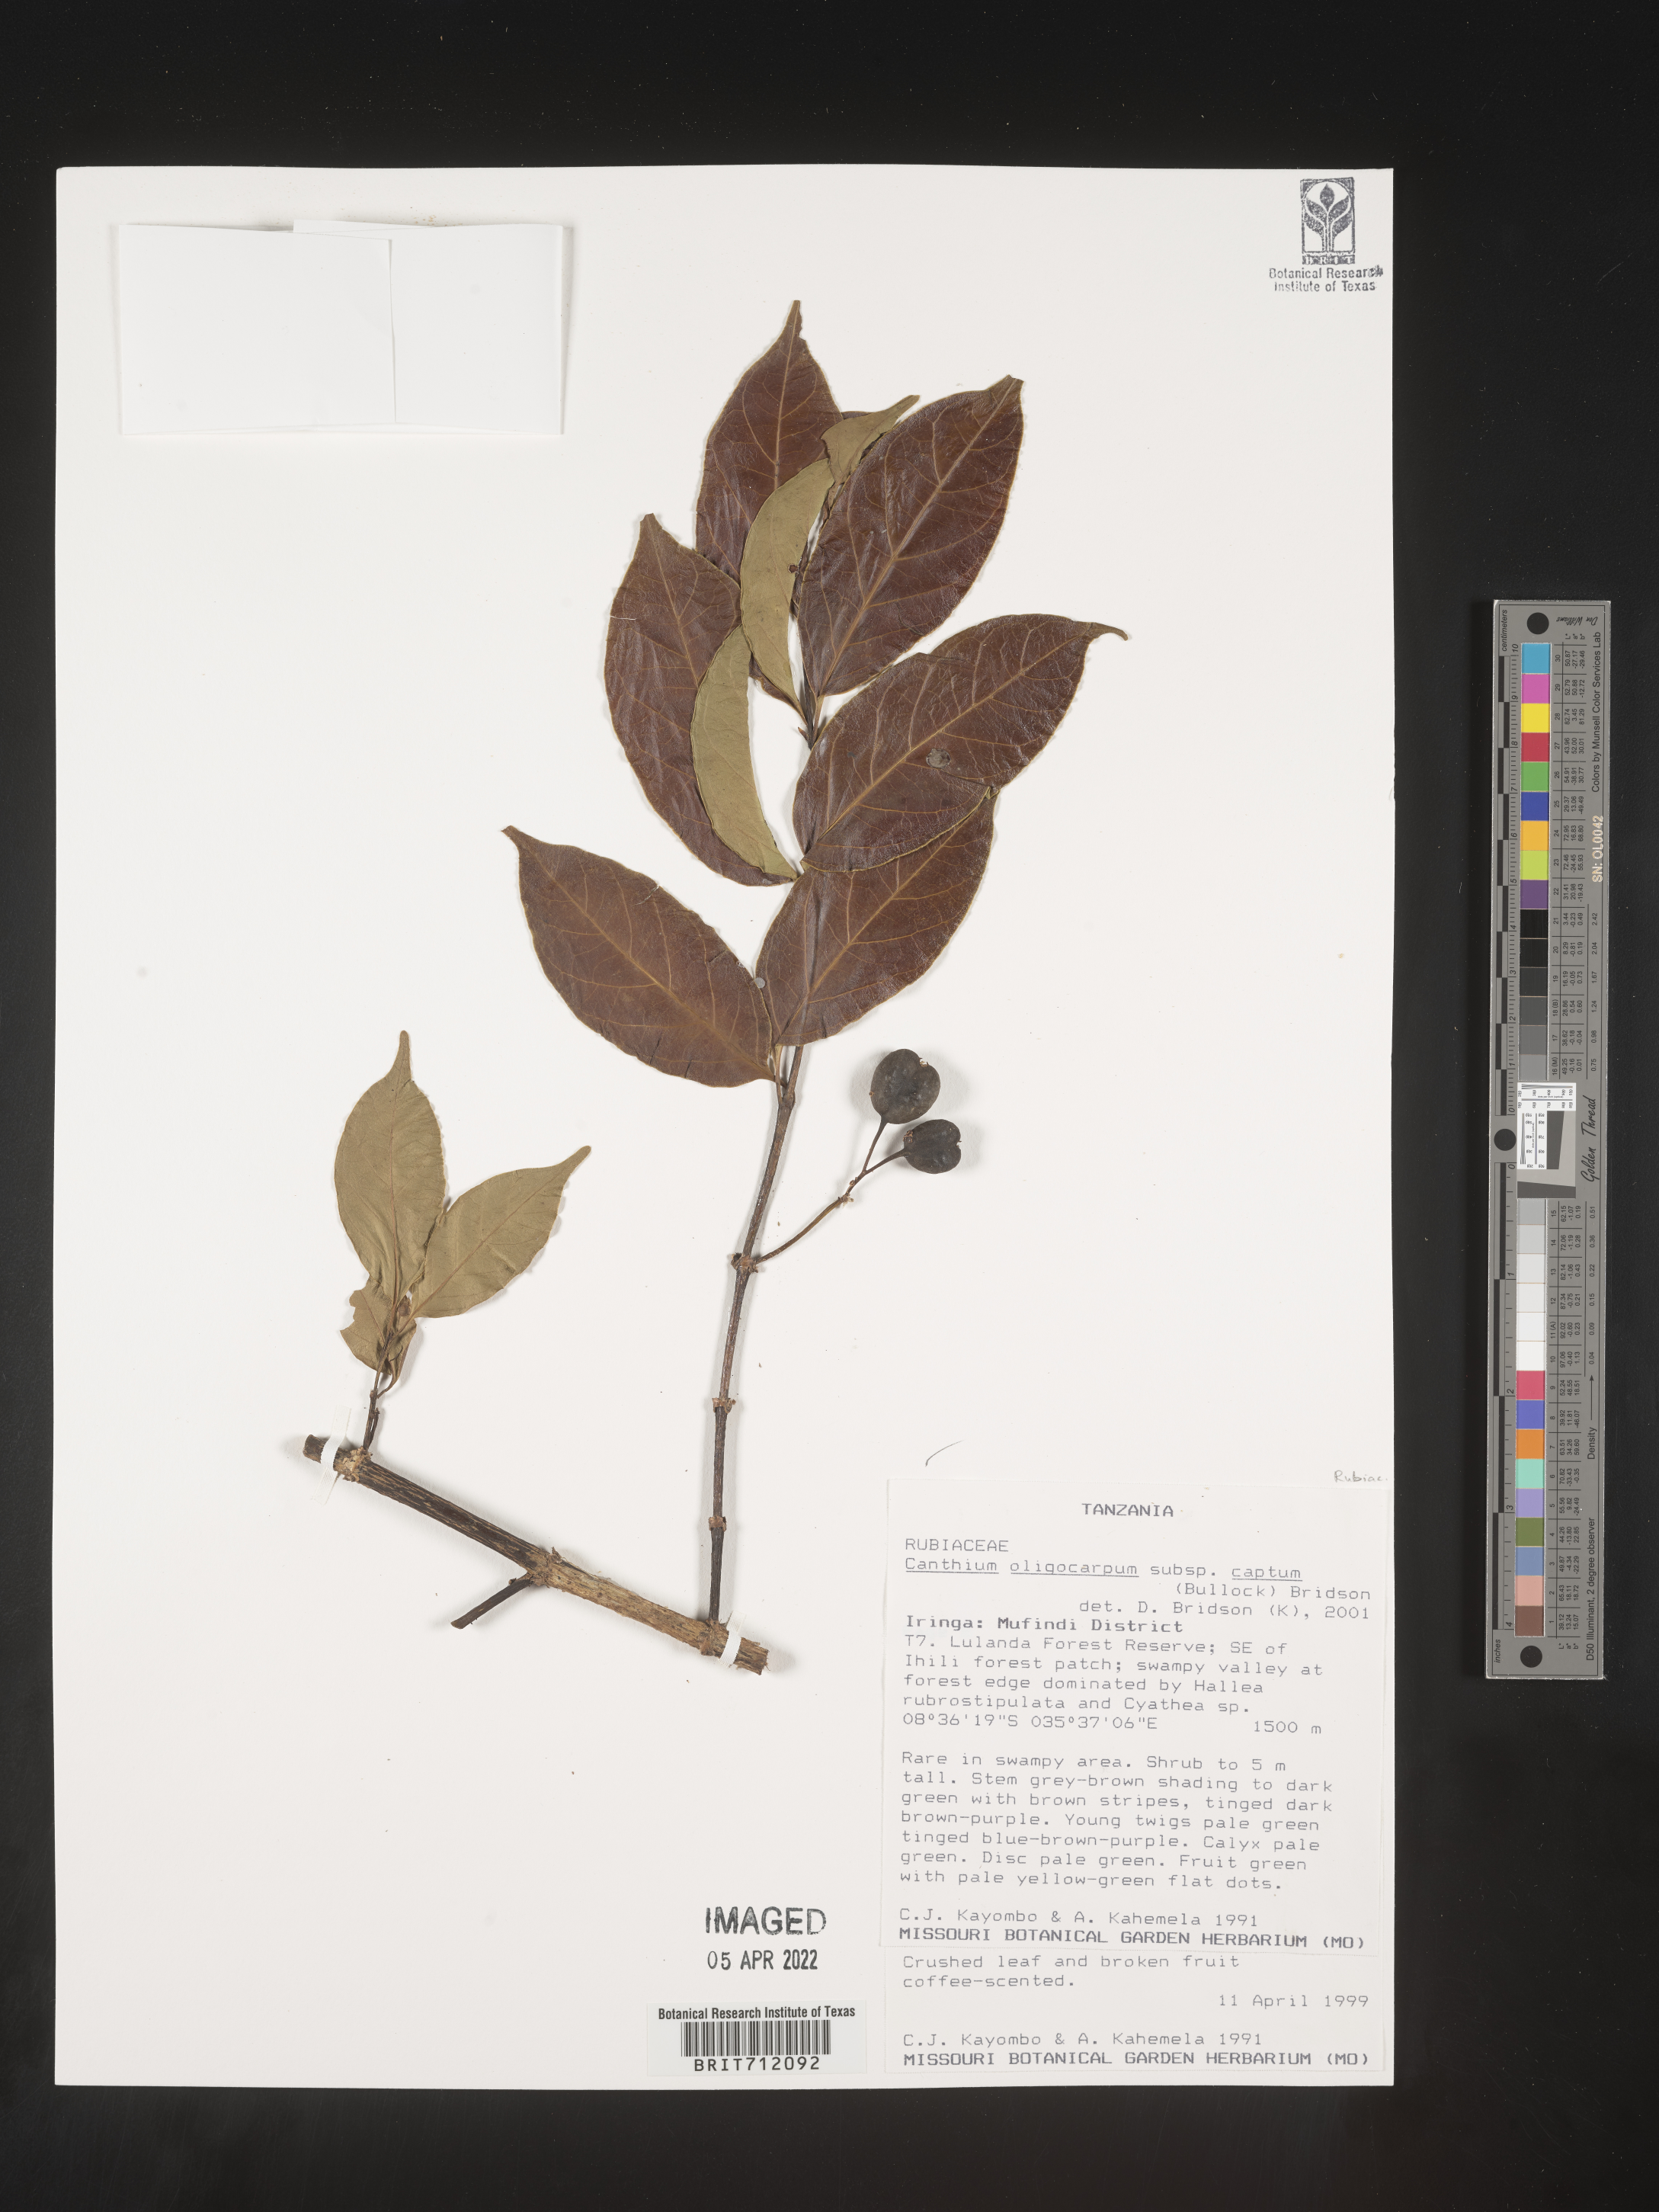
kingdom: Plantae
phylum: Tracheophyta
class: Magnoliopsida
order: Gentianales
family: Rubiaceae
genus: Canthium
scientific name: Canthium
